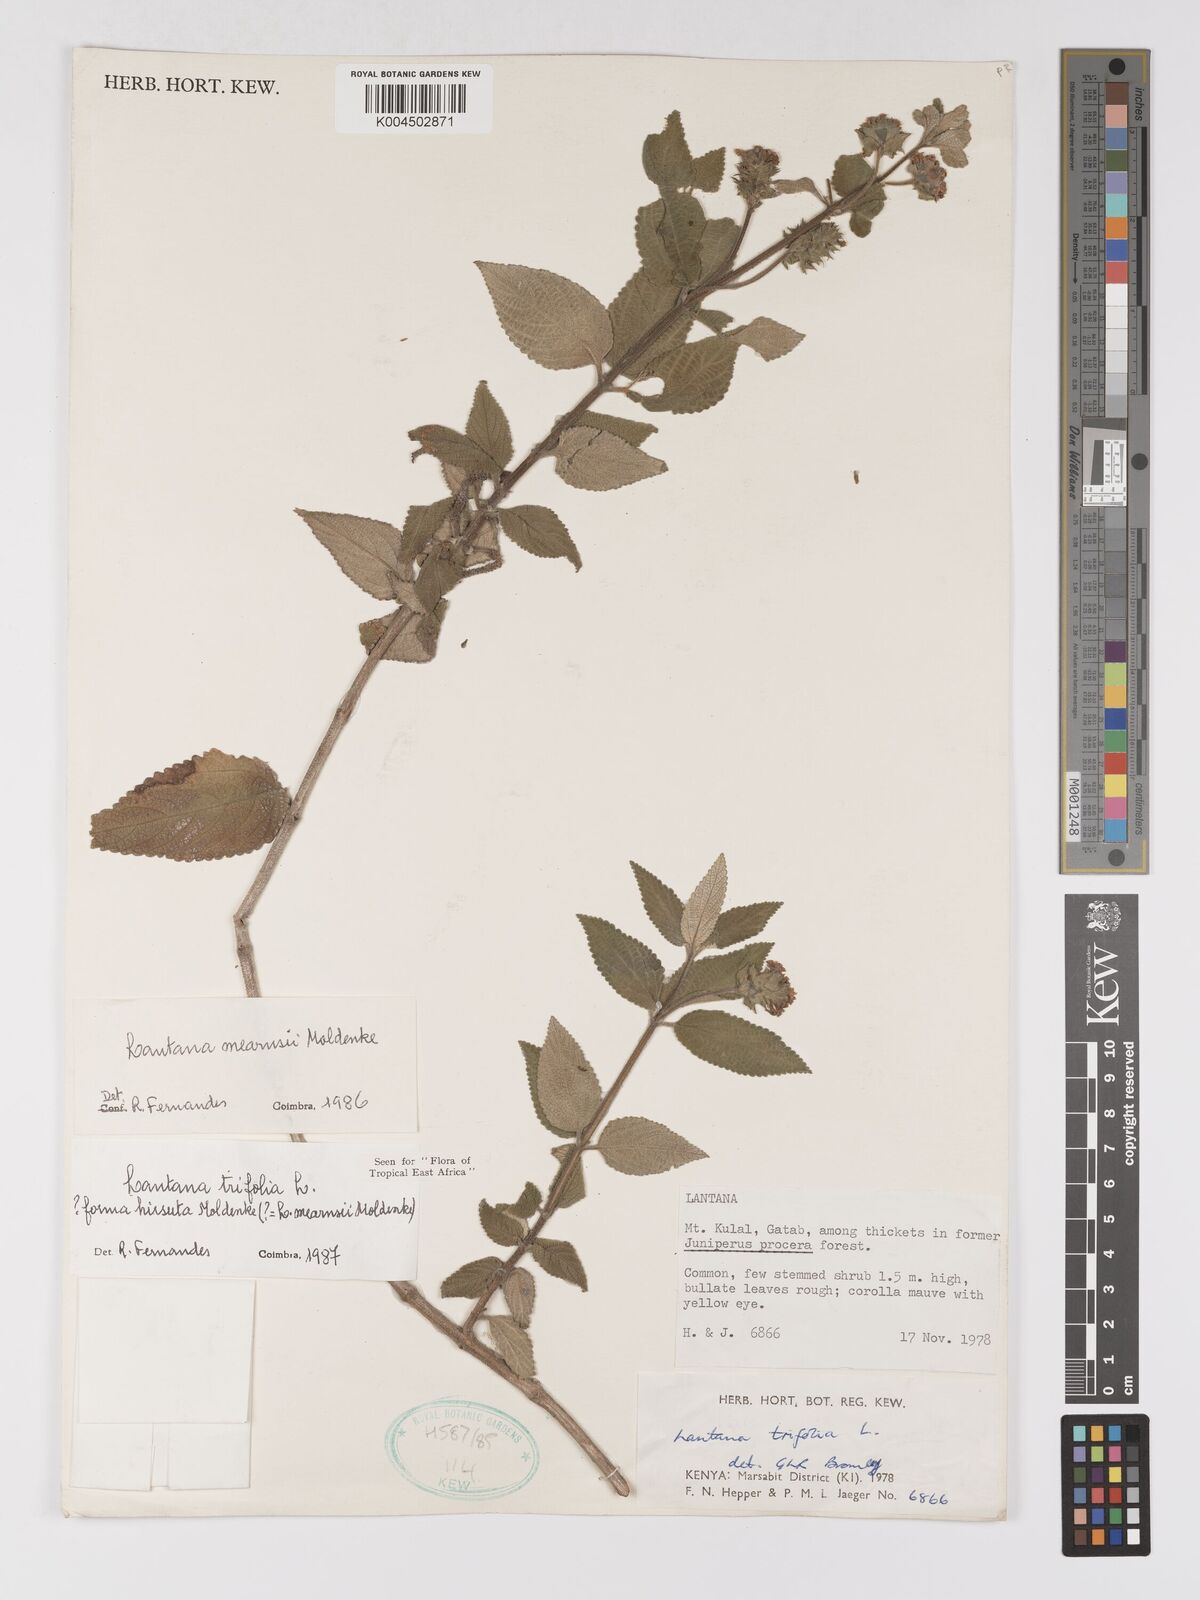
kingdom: Plantae
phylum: Tracheophyta
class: Magnoliopsida
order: Lamiales
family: Verbenaceae
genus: Lantana
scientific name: Lantana trifolia
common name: Sweet-sage
